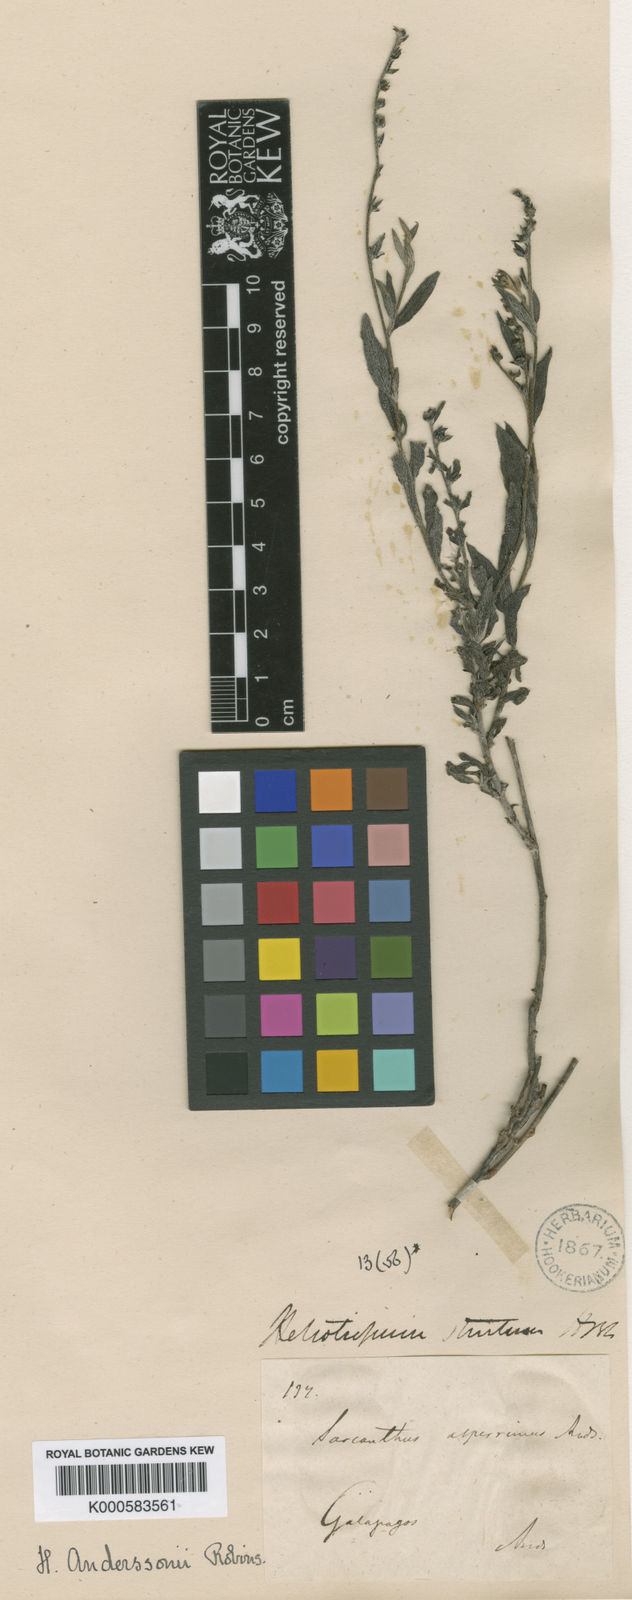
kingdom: Plantae
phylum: Tracheophyta
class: Magnoliopsida
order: Boraginales
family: Heliotropiaceae
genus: Euploca
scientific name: Euploca asperrima
